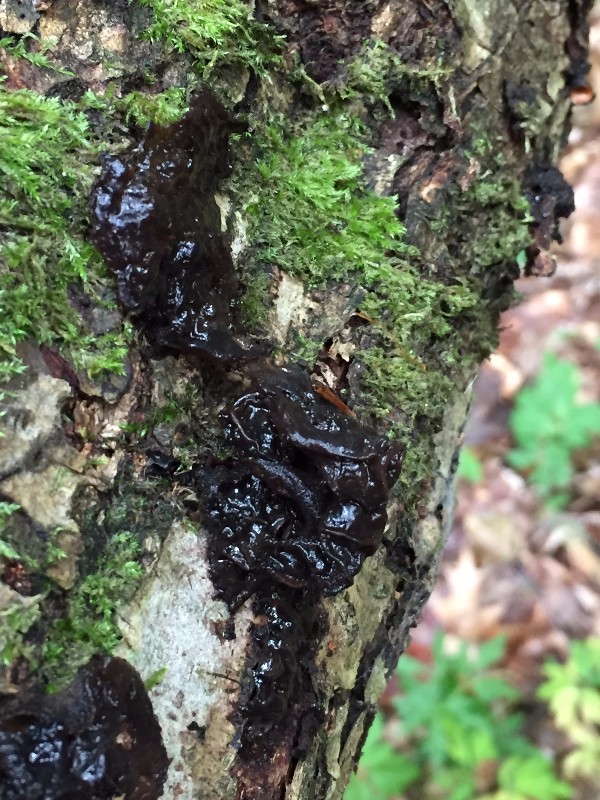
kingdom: Fungi
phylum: Basidiomycota
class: Agaricomycetes
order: Auriculariales
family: Auriculariaceae
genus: Exidia
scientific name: Exidia glandulosa
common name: ege-bævretop
